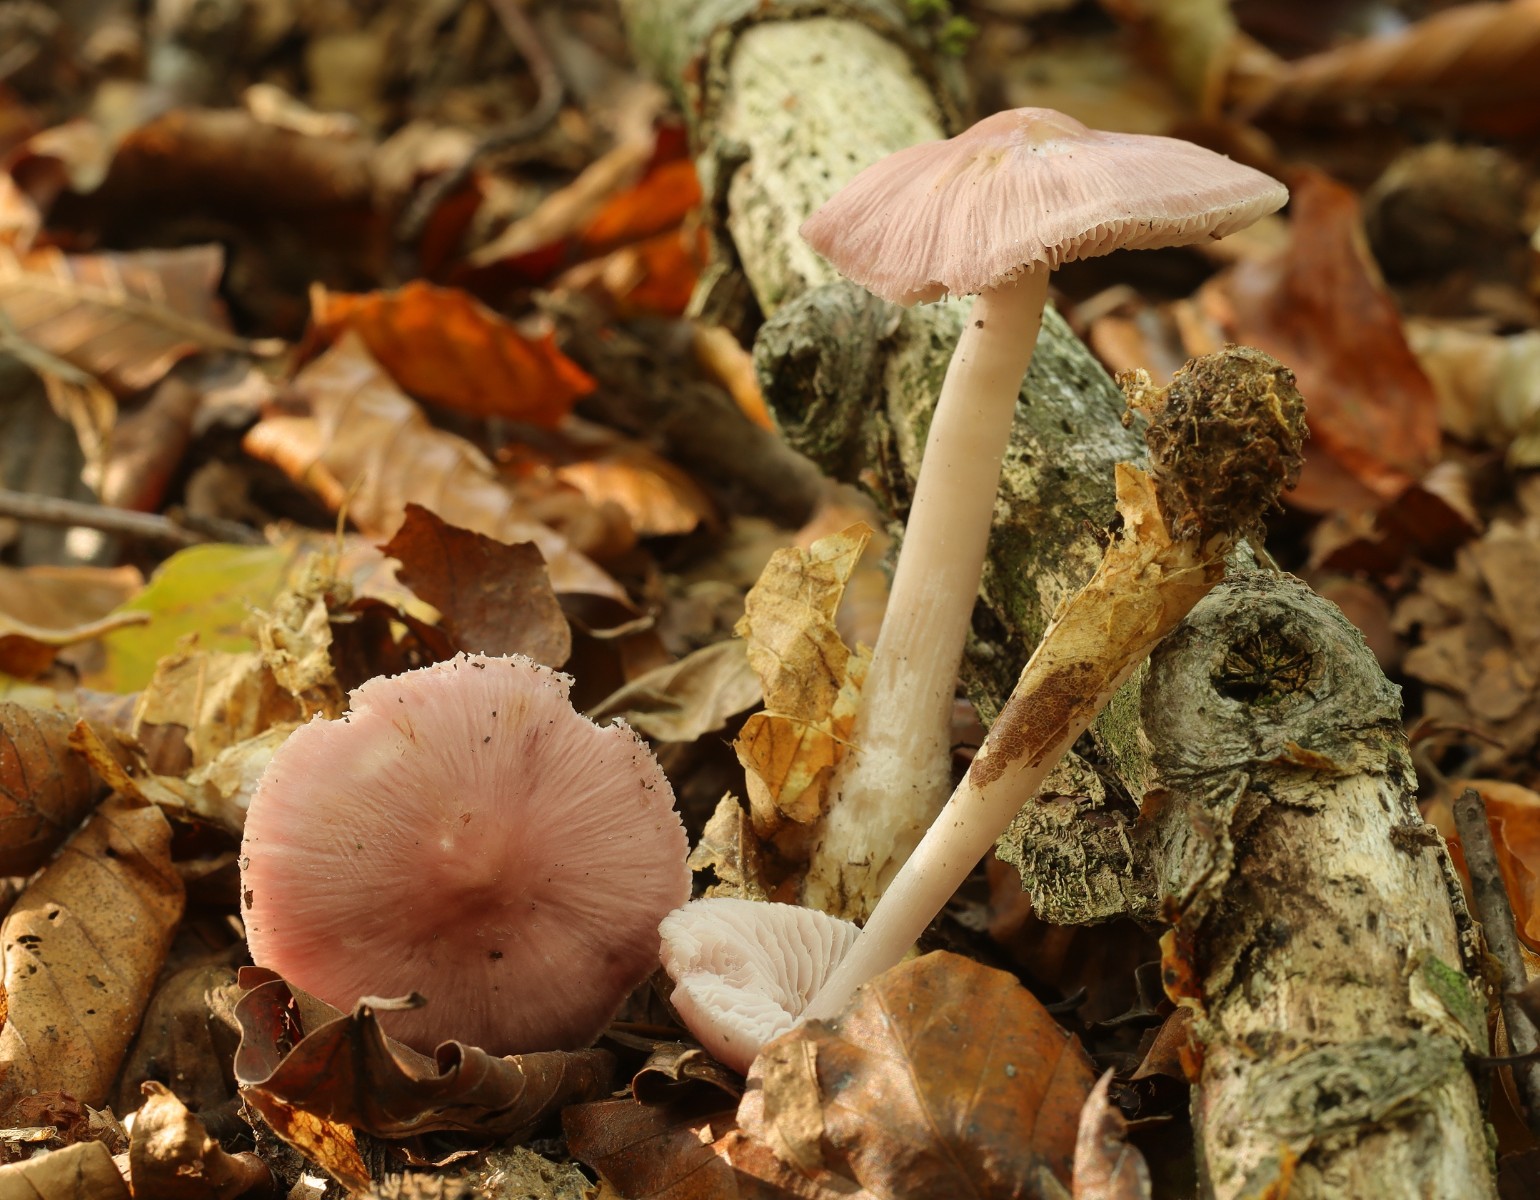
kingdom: Fungi
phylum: Basidiomycota
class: Agaricomycetes
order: Agaricales
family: Mycenaceae
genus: Mycena
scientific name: Mycena rosea
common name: rosa huesvamp
